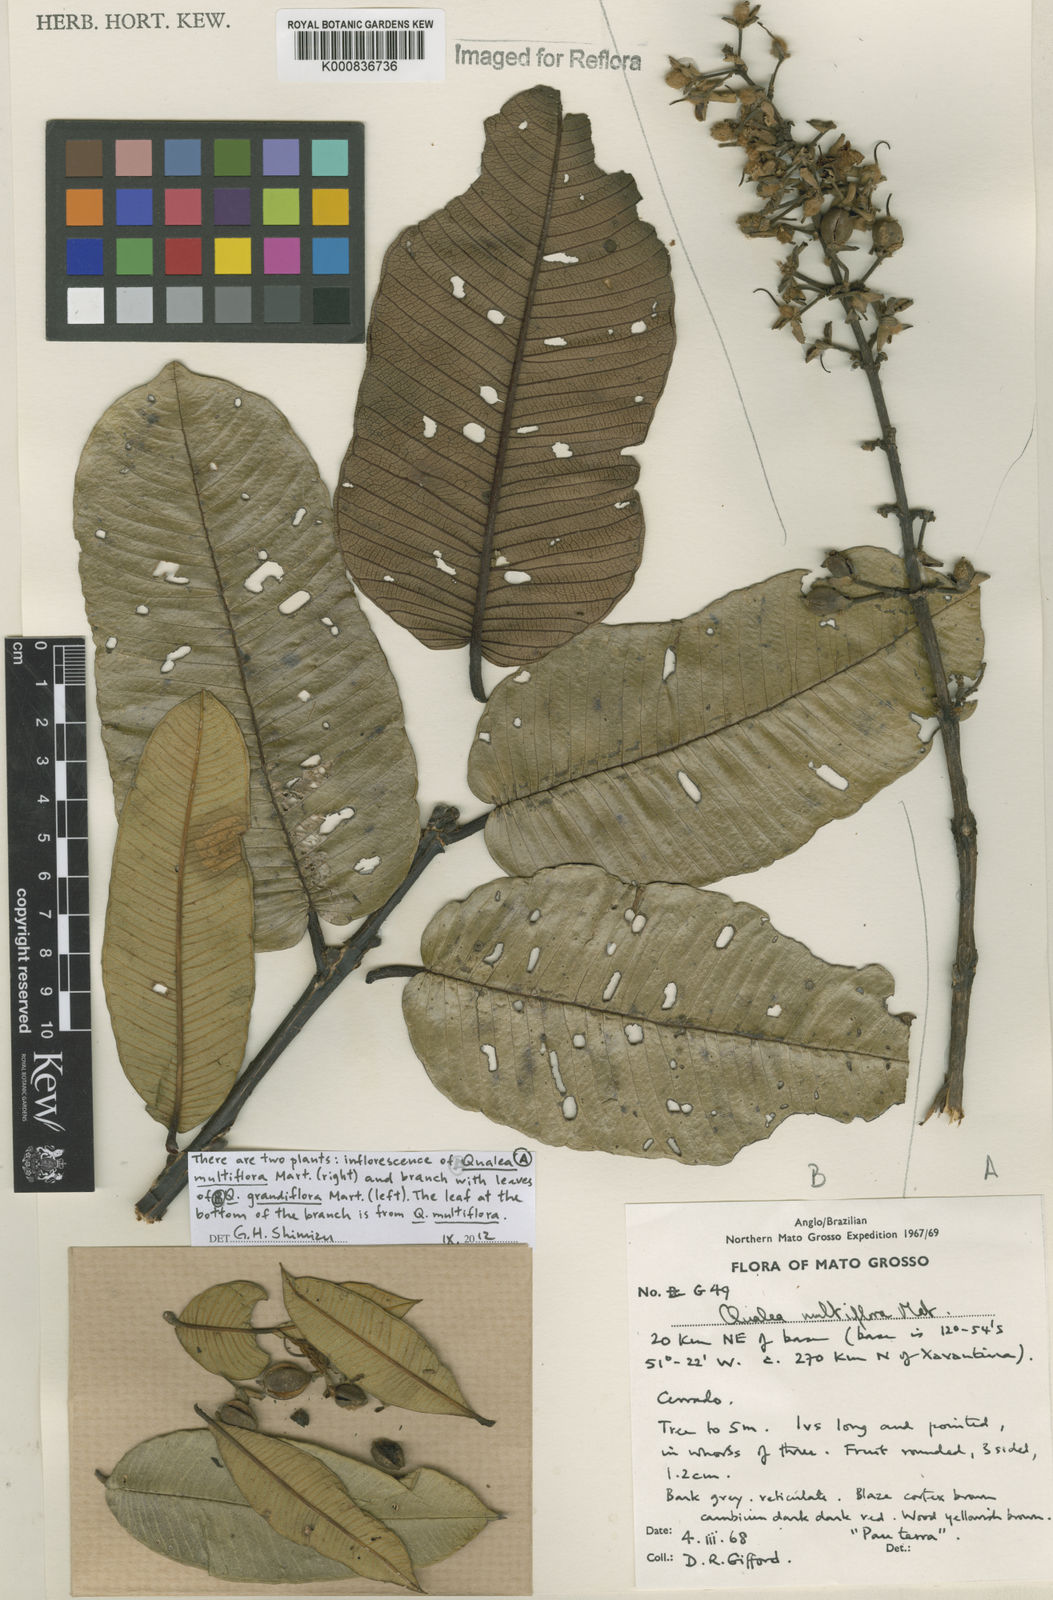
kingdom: Plantae
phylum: Tracheophyta
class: Magnoliopsida
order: Myrtales
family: Vochysiaceae
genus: Qualea
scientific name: Qualea grandiflora
